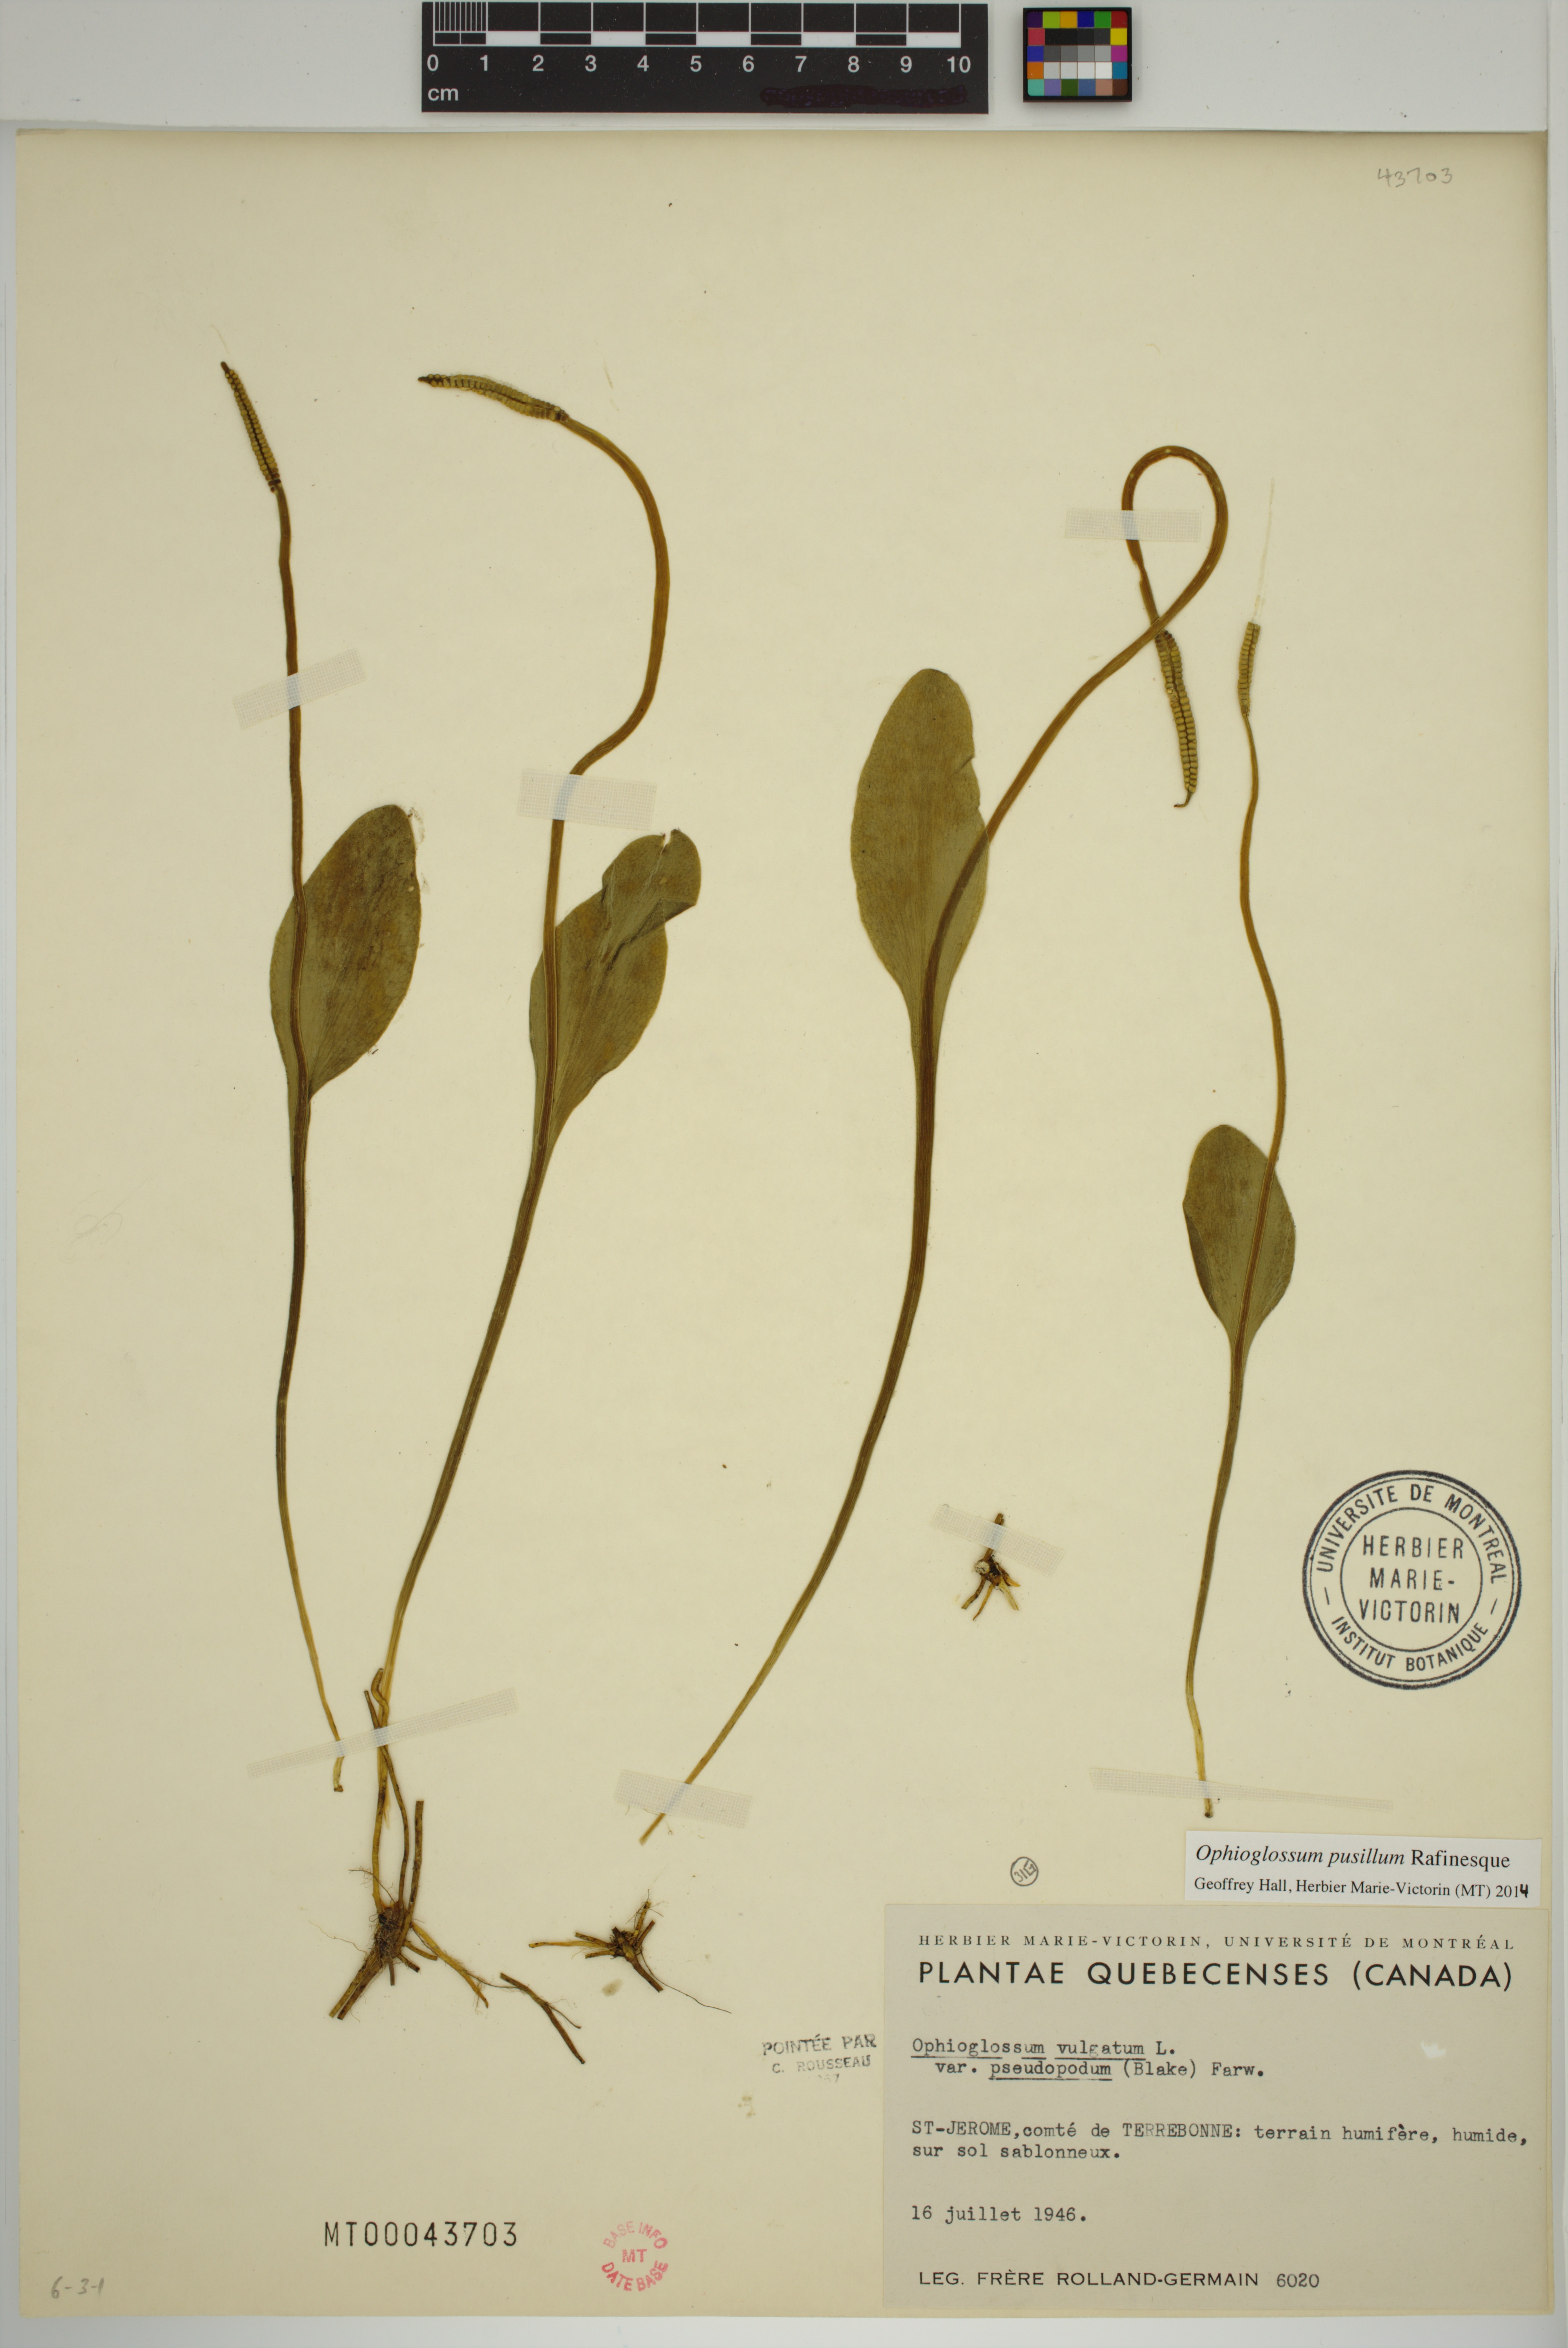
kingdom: Plantae
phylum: Tracheophyta
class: Polypodiopsida
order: Ophioglossales
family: Ophioglossaceae
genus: Ophioglossum
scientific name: Ophioglossum pusillum
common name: Northern adder's-tongue
